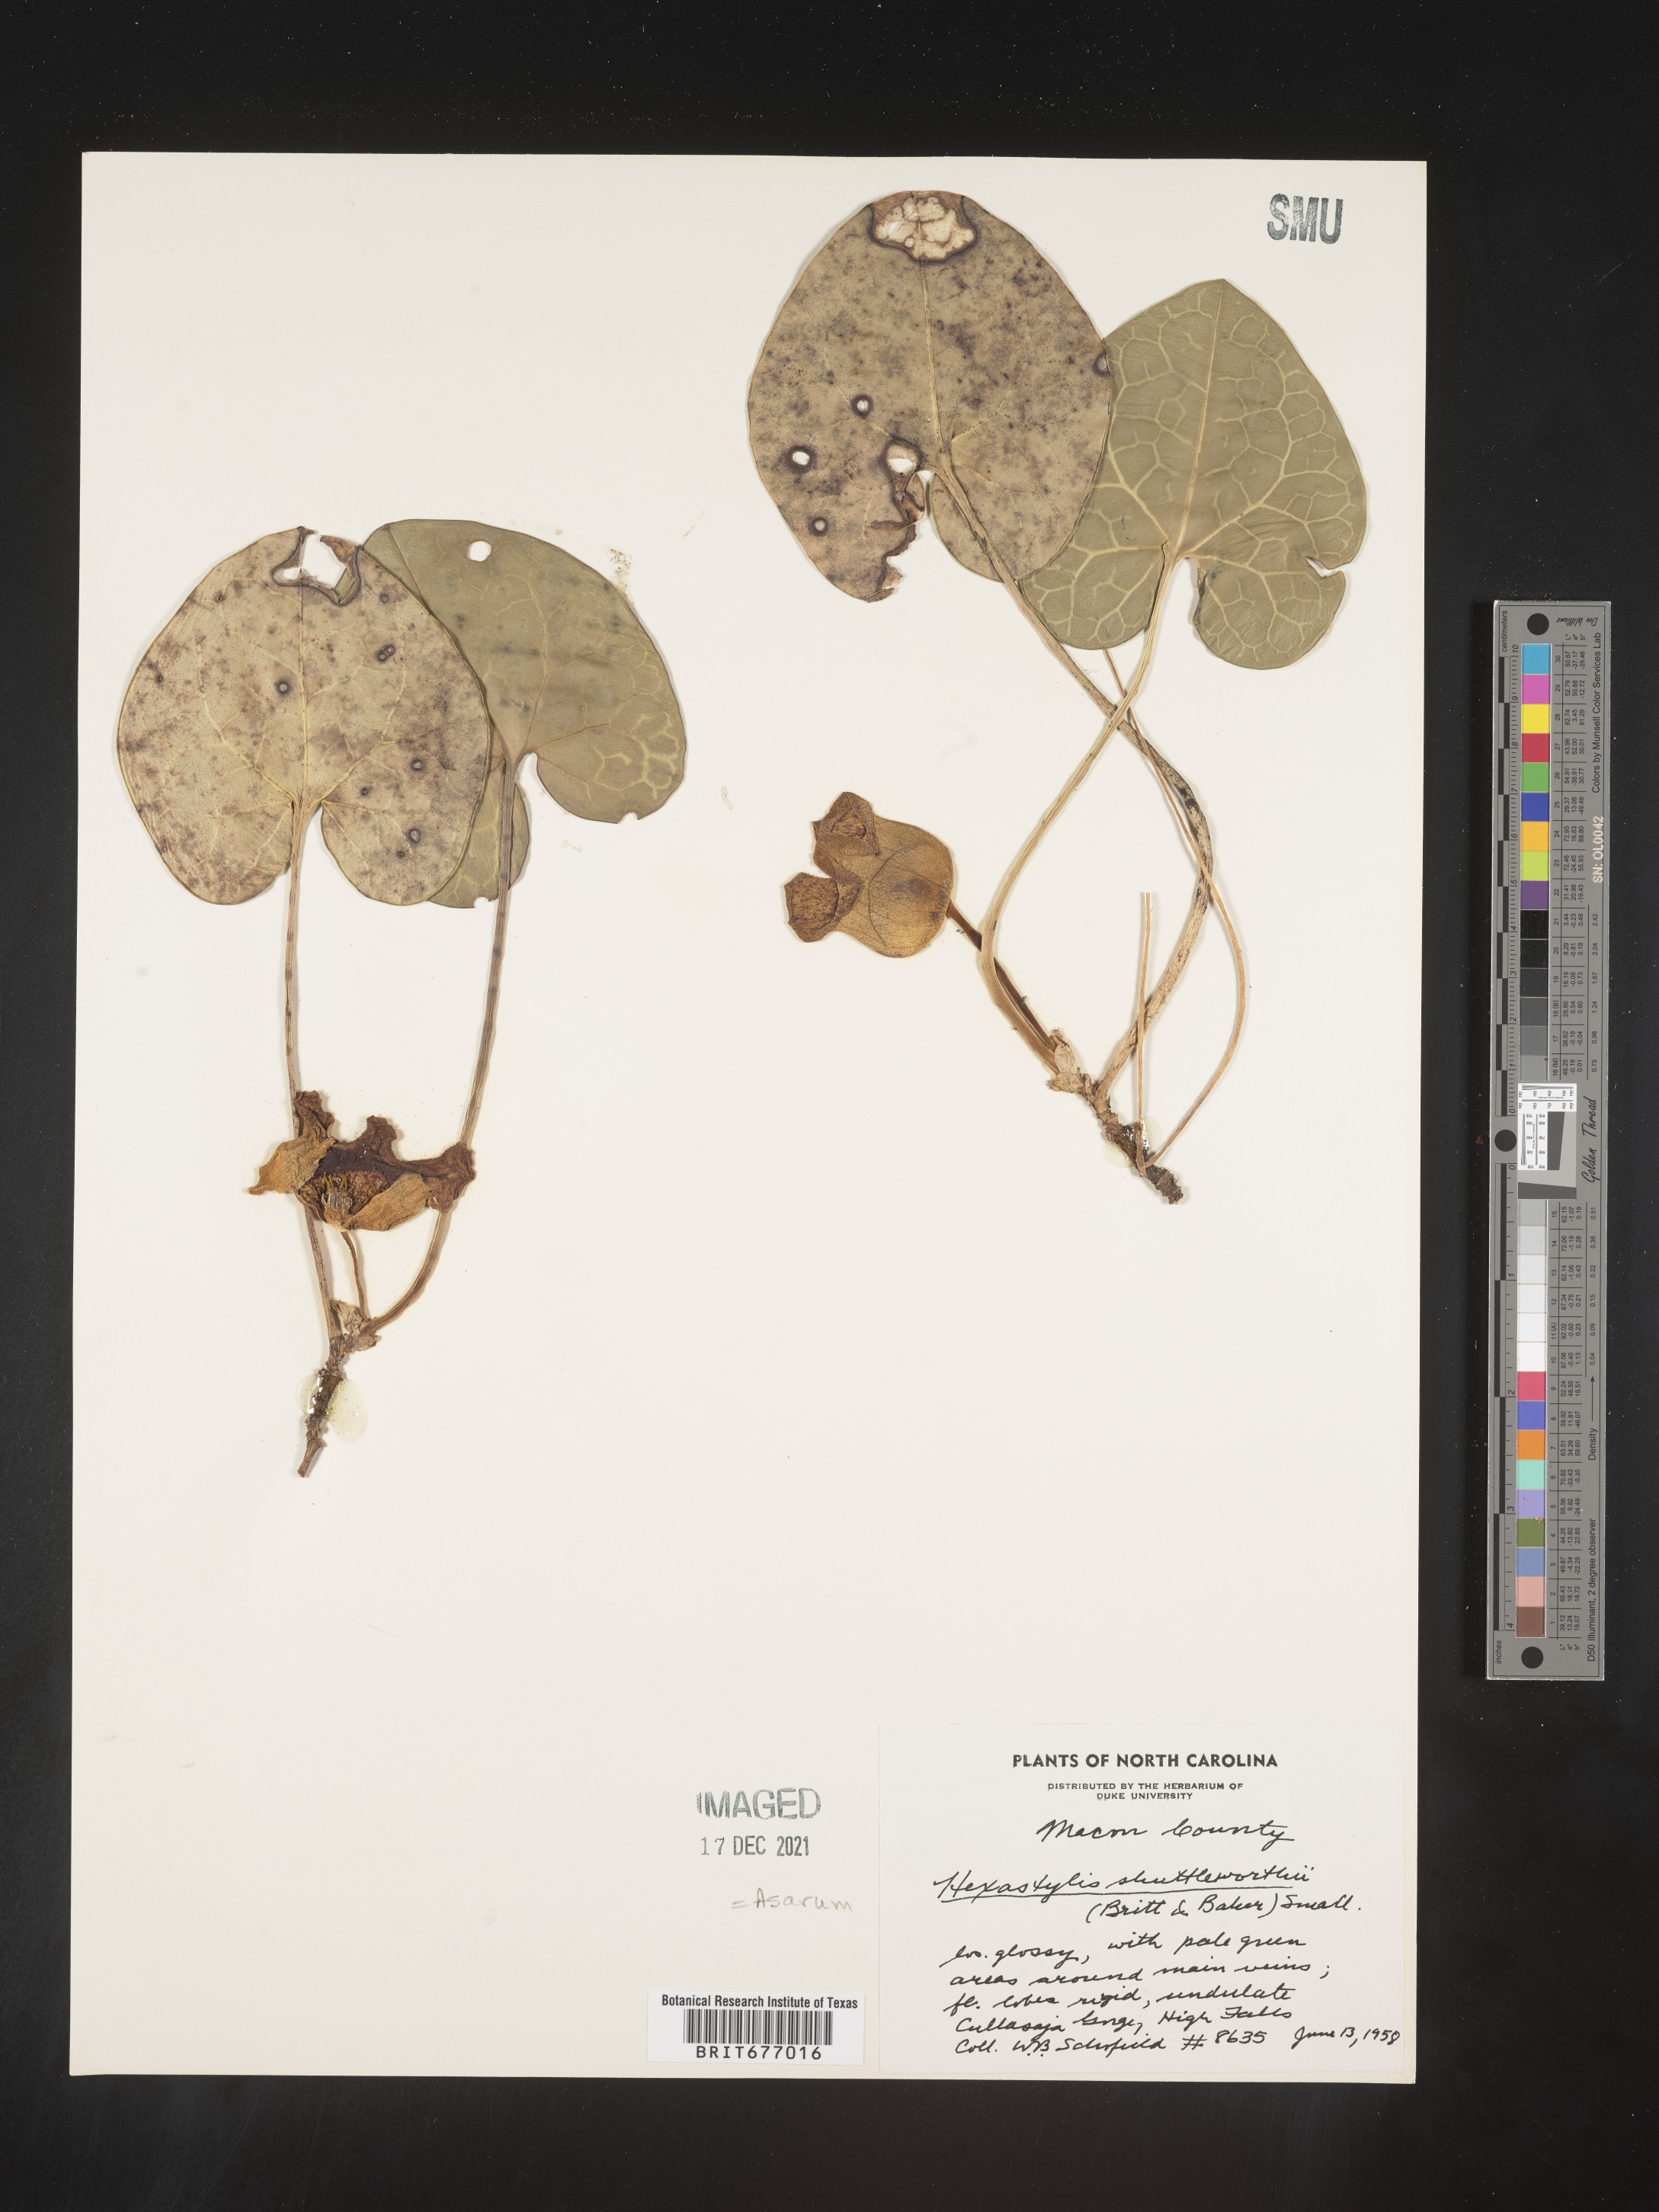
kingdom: Plantae
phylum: Tracheophyta
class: Magnoliopsida
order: Piperales
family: Aristolochiaceae
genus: Asarum
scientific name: Asarum
